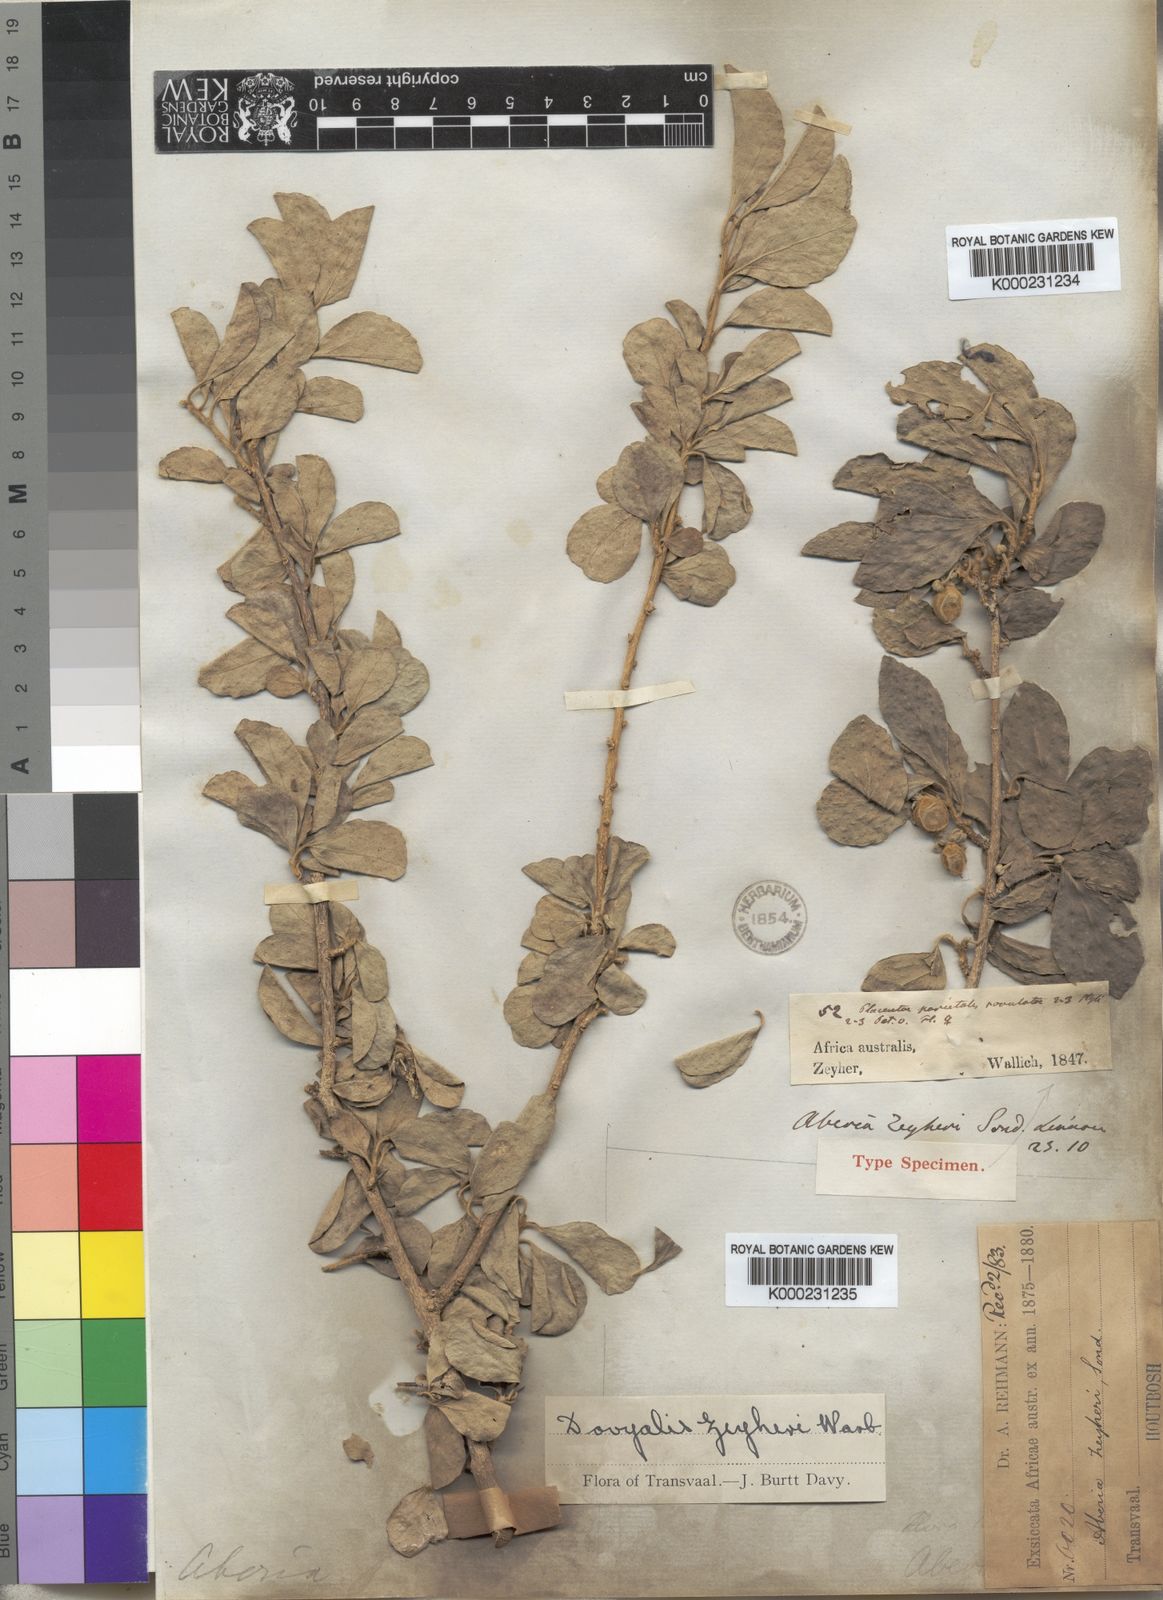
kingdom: Plantae
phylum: Tracheophyta
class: Magnoliopsida
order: Malpighiales
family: Salicaceae
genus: Dovyalis
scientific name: Dovyalis zeyheri
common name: Apricot sourberry
